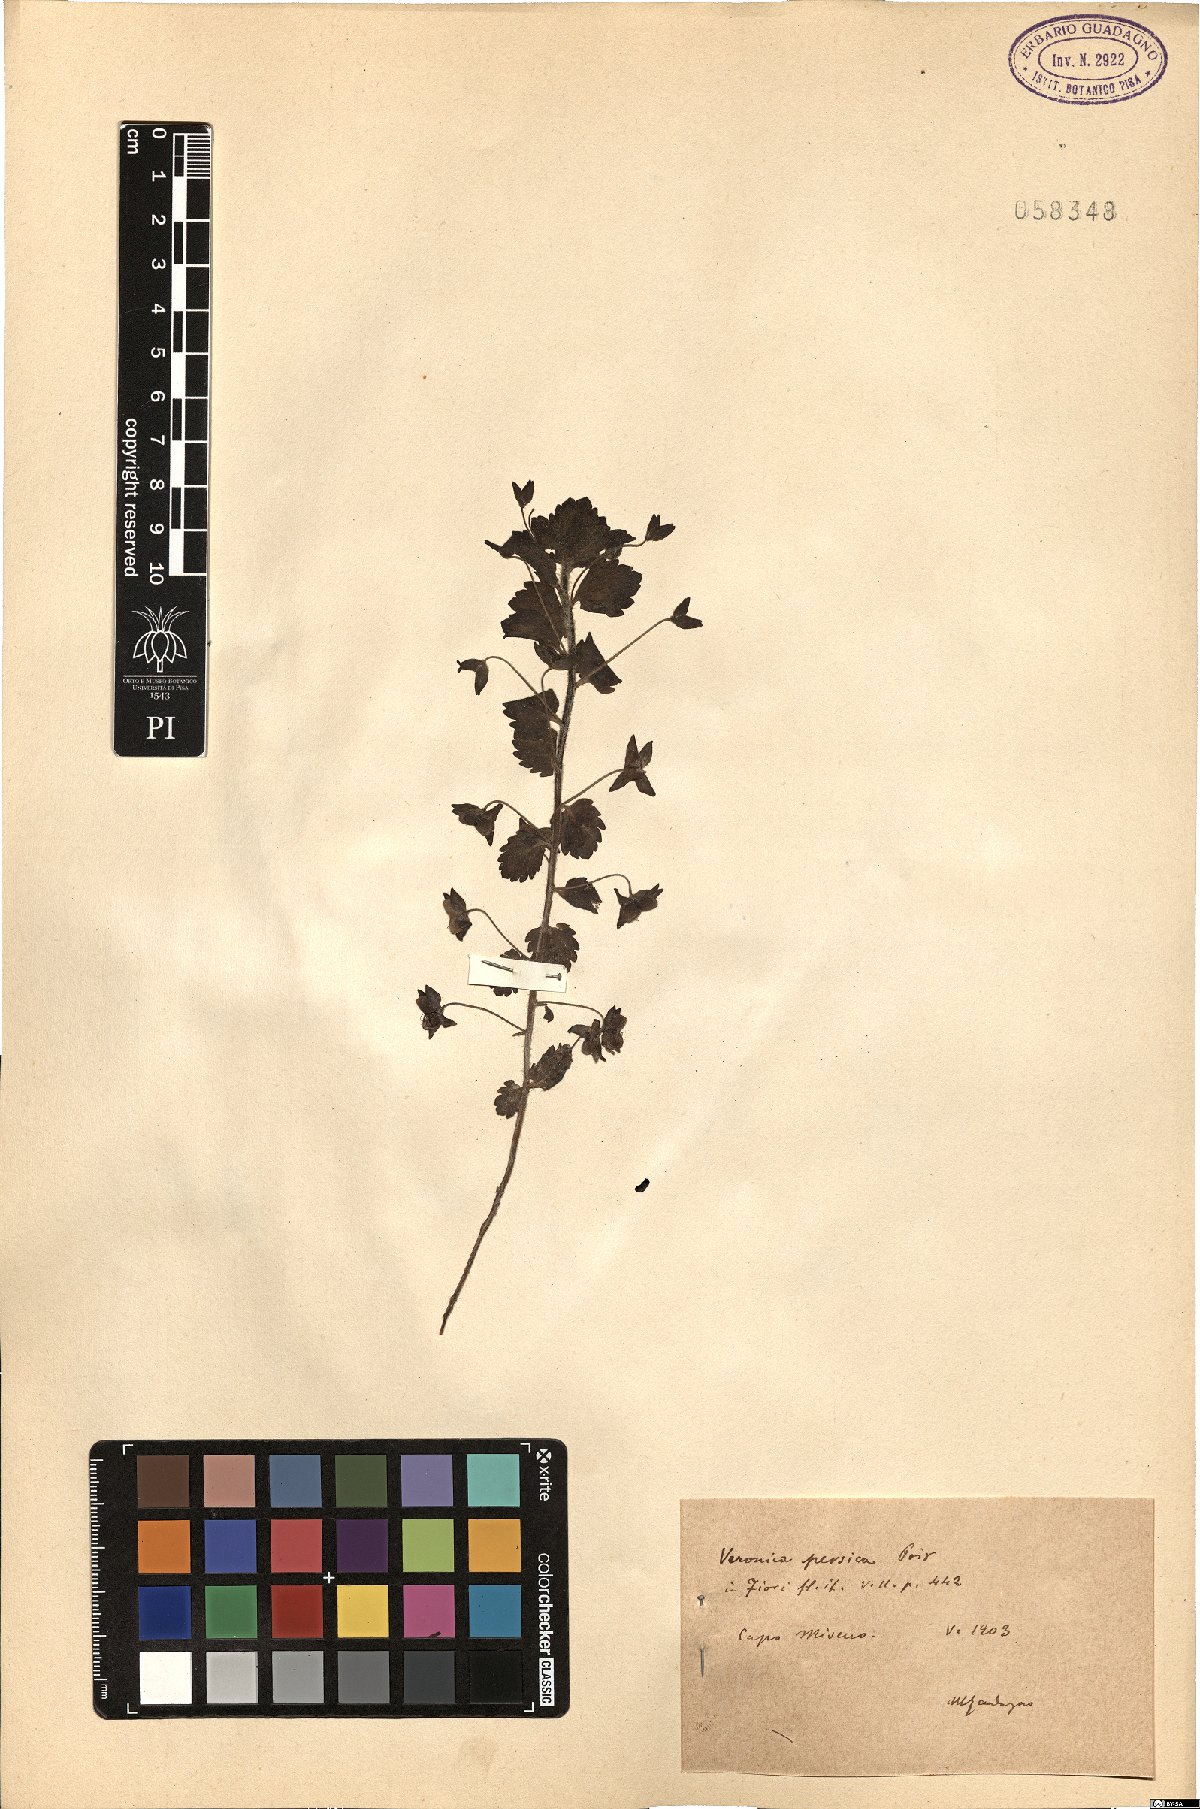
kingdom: Plantae
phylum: Tracheophyta
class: Magnoliopsida
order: Lamiales
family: Plantaginaceae
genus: Veronica
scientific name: Veronica persica
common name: Common field-speedwell
